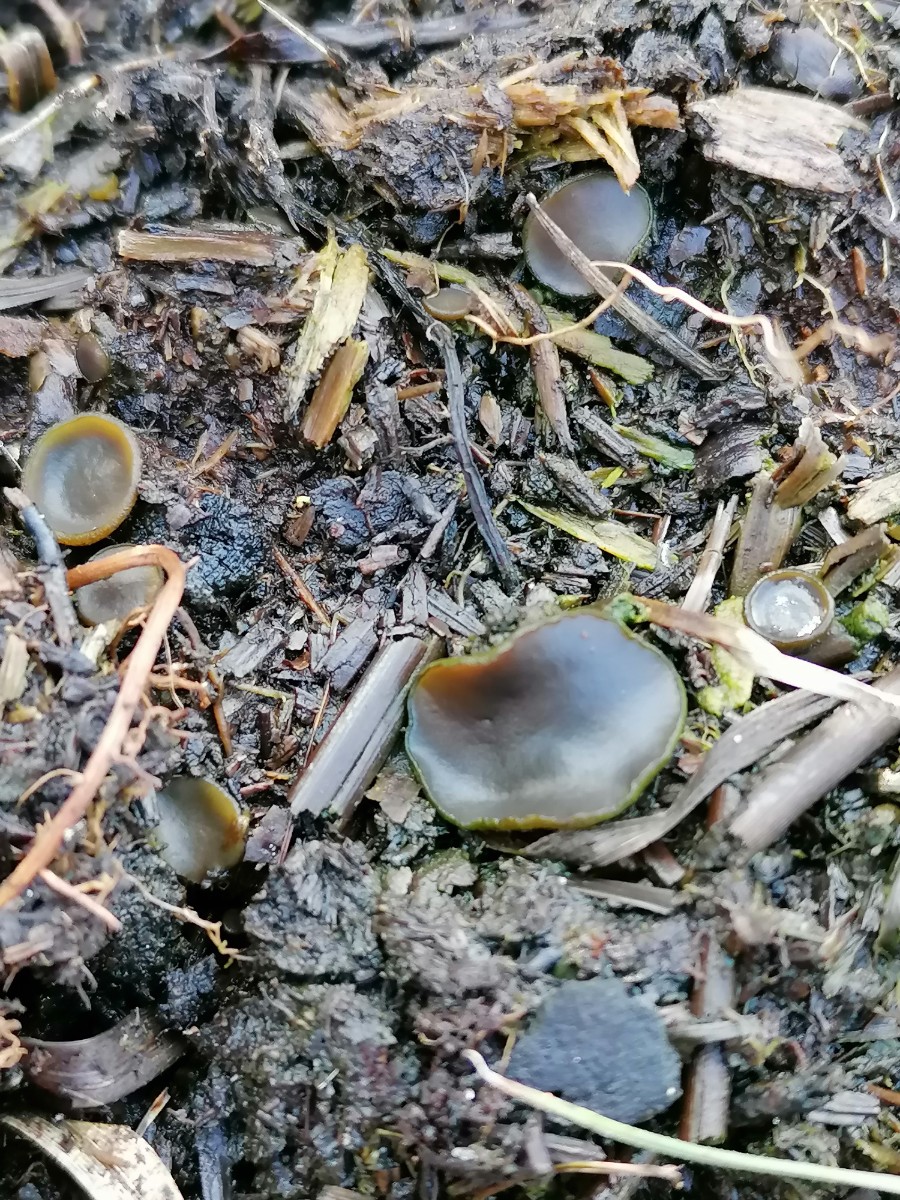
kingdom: Fungi
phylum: Ascomycota
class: Pezizomycetes
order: Pezizales
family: Pezizaceae
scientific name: Pezizaceae
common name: bægersvampfamilien
